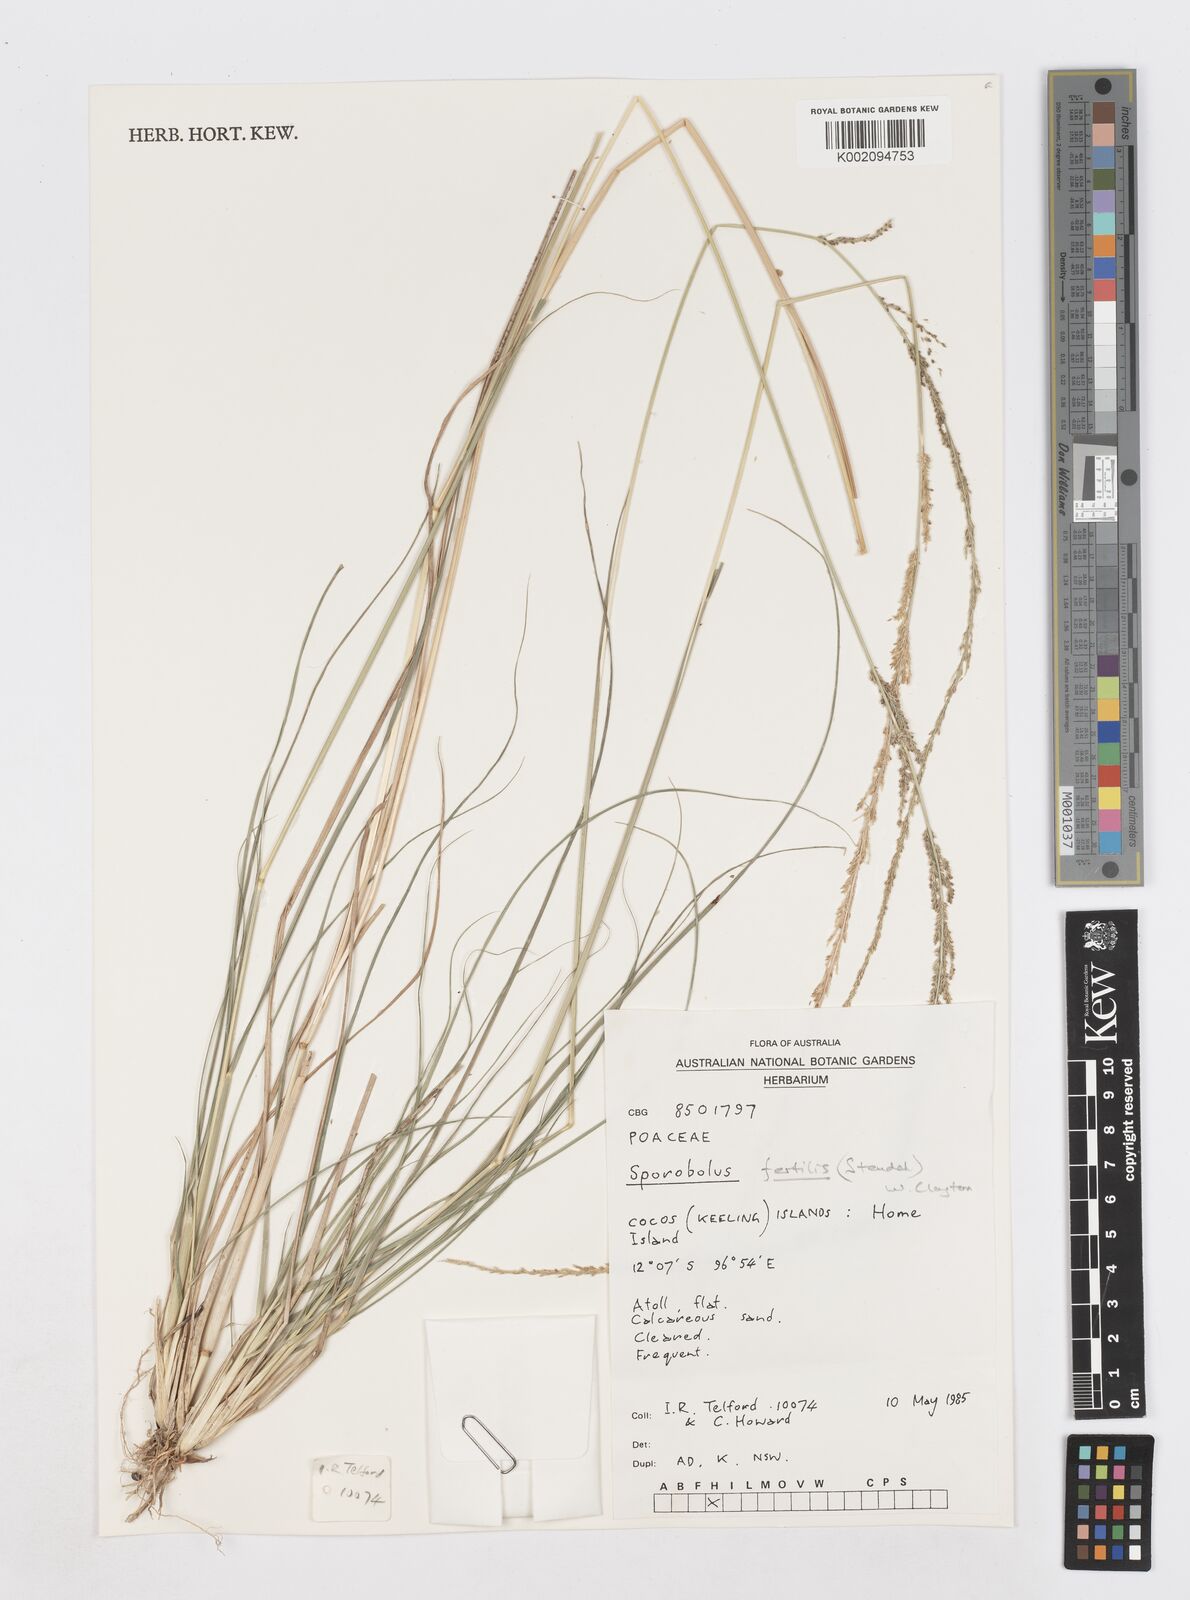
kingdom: Plantae
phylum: Tracheophyta
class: Liliopsida
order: Poales
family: Poaceae
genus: Sporobolus
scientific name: Sporobolus fertilis
